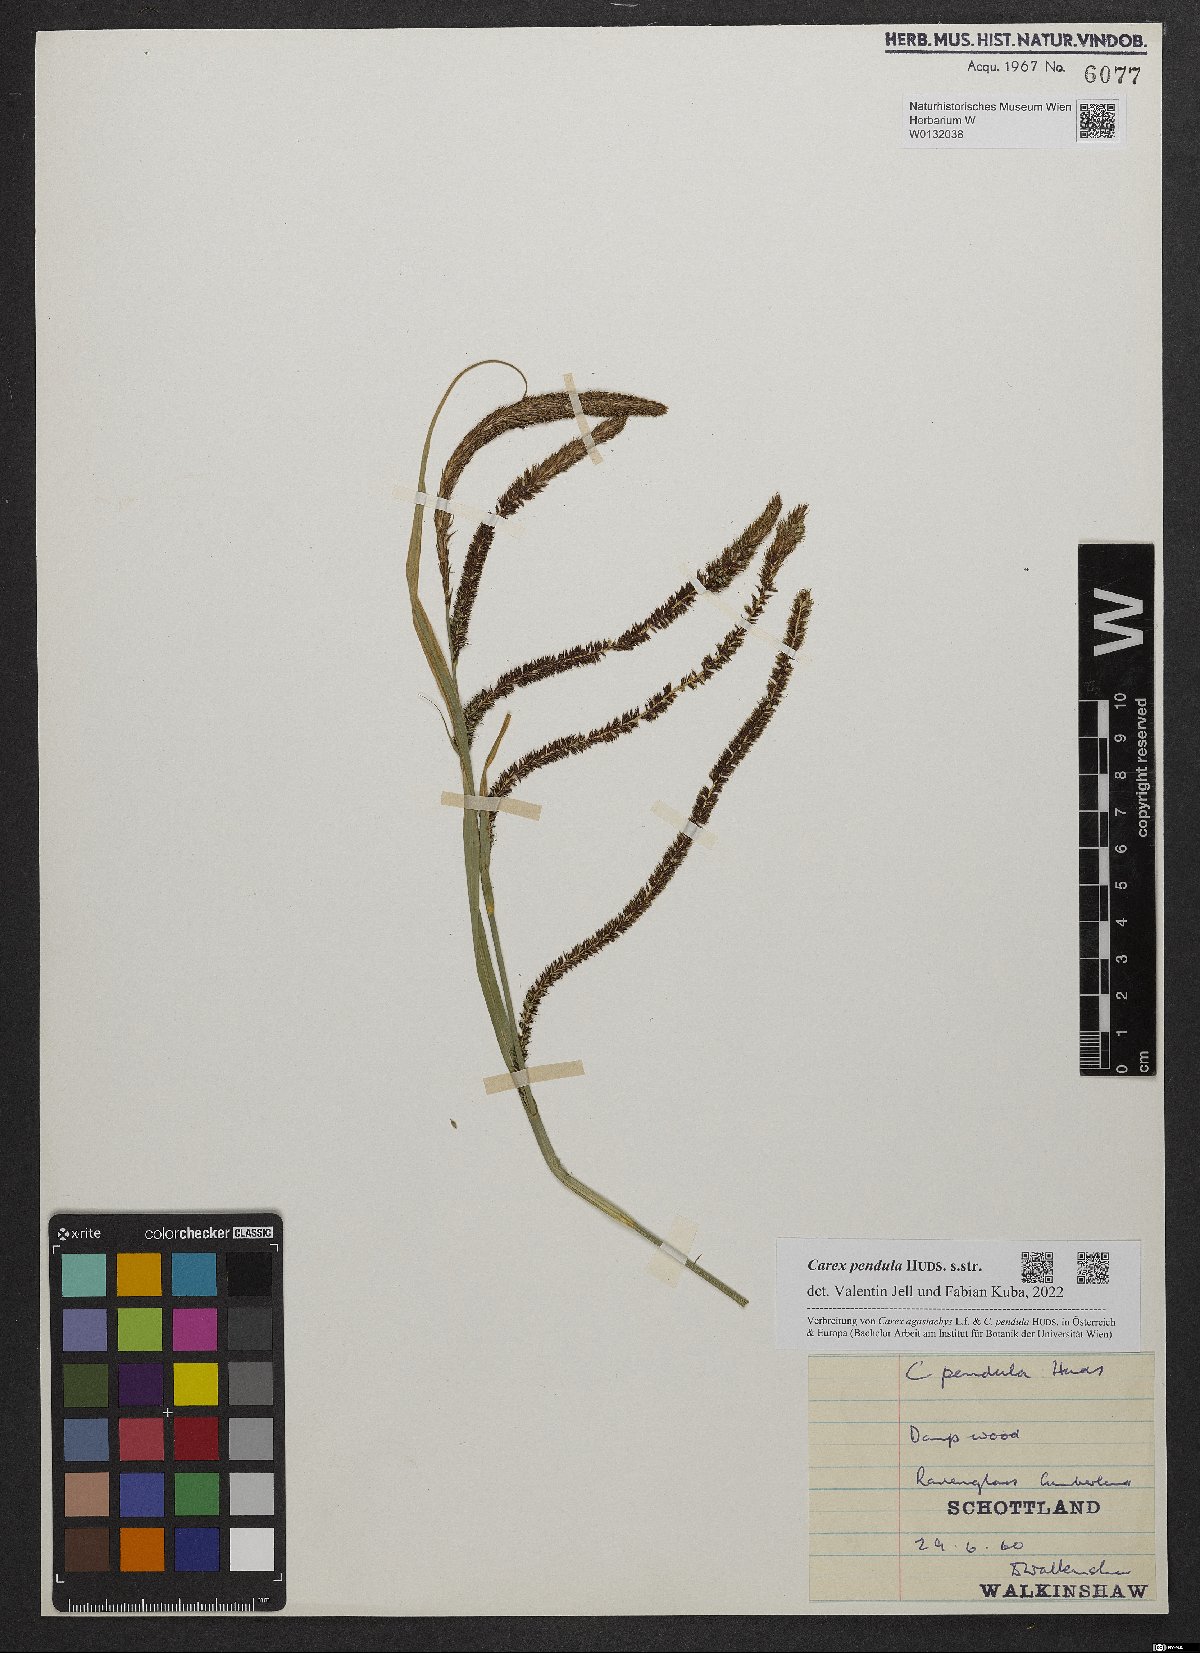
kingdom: Plantae
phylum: Tracheophyta
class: Liliopsida
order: Poales
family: Cyperaceae
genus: Carex
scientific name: Carex pendula
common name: Pendulous sedge
